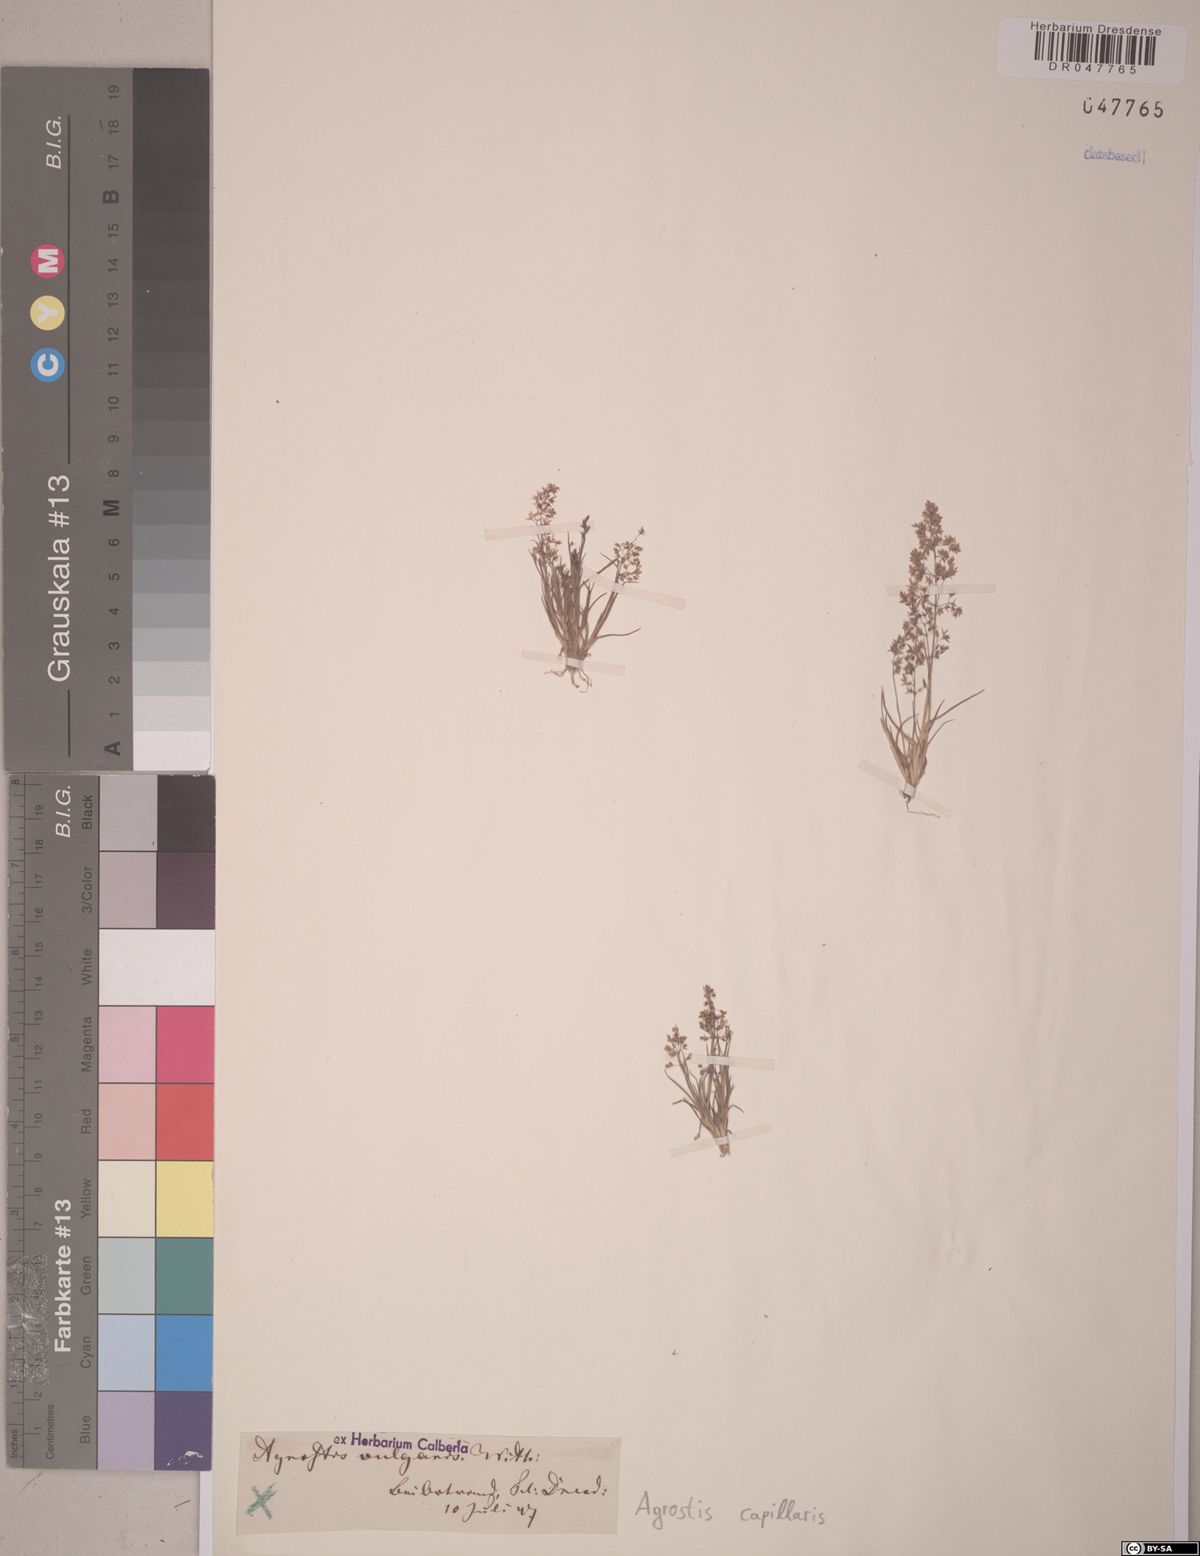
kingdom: Plantae
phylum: Tracheophyta
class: Liliopsida
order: Poales
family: Poaceae
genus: Agrostis
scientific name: Agrostis capillaris
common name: Colonial bentgrass
